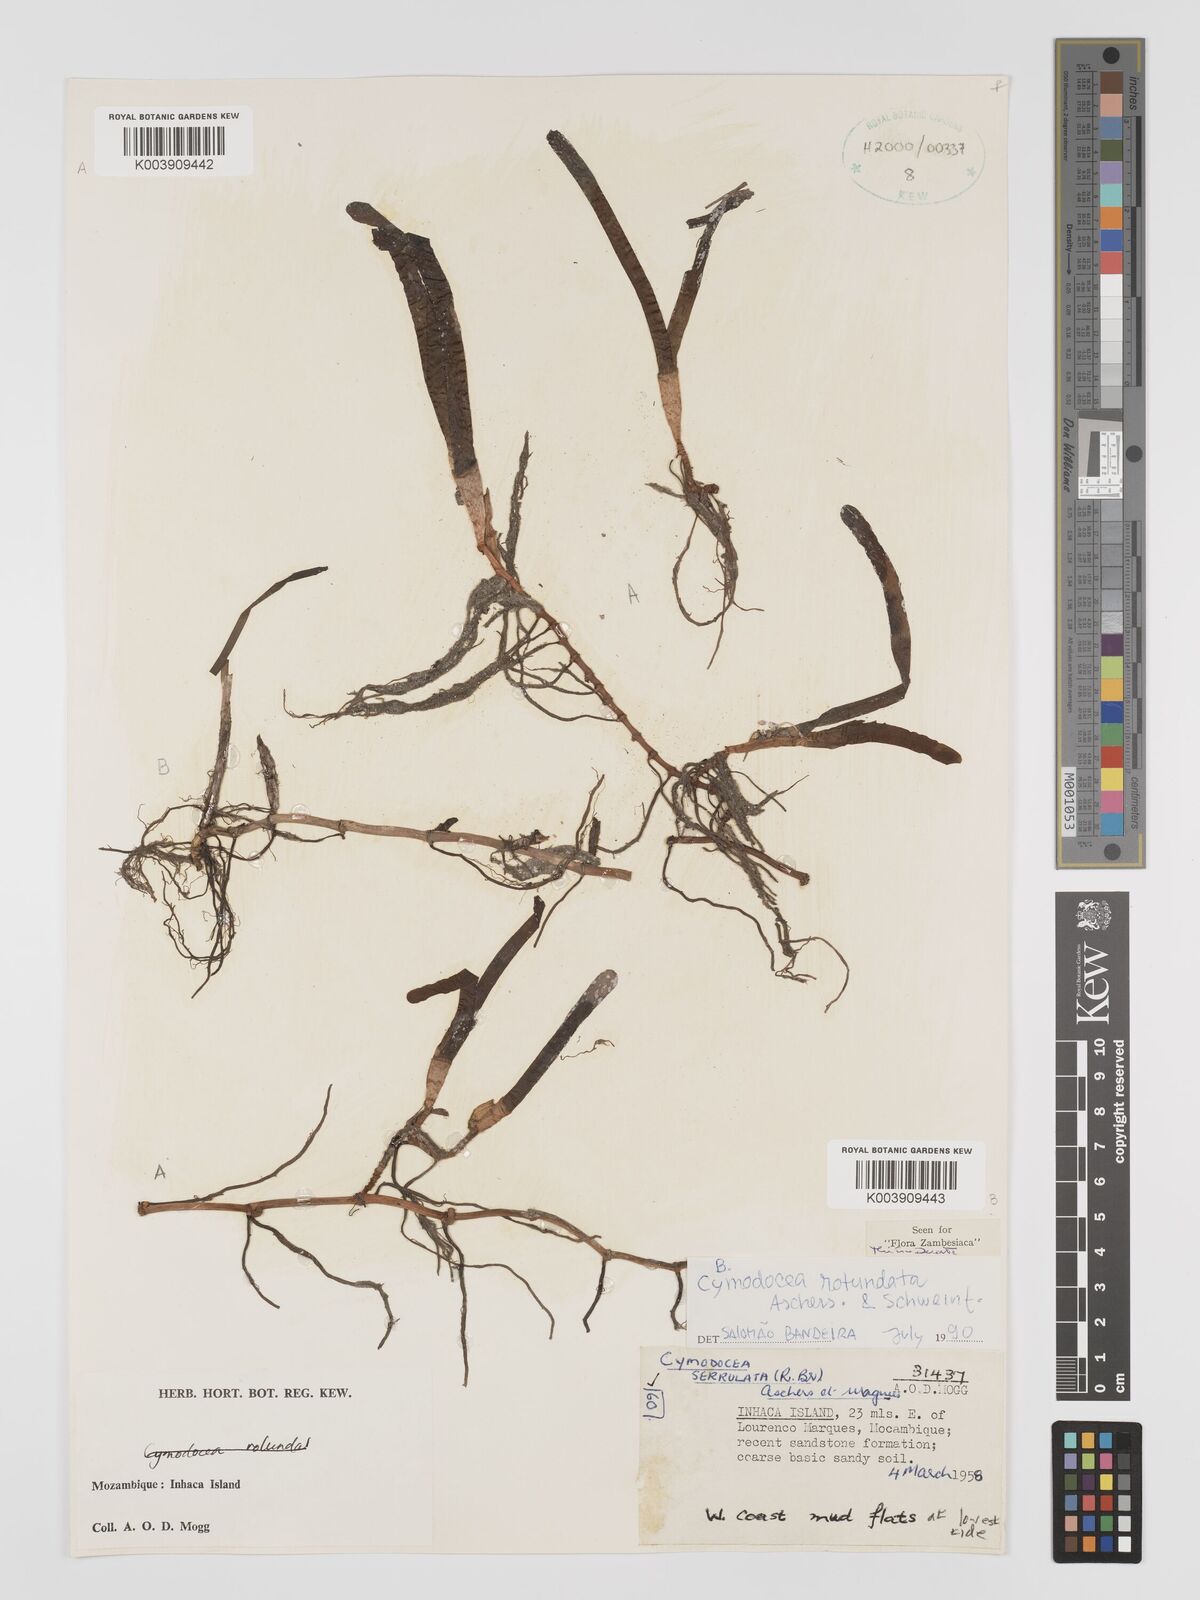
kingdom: Plantae
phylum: Tracheophyta
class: Liliopsida
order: Alismatales
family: Cymodoceaceae
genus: Oceana
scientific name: Oceana serrulata
